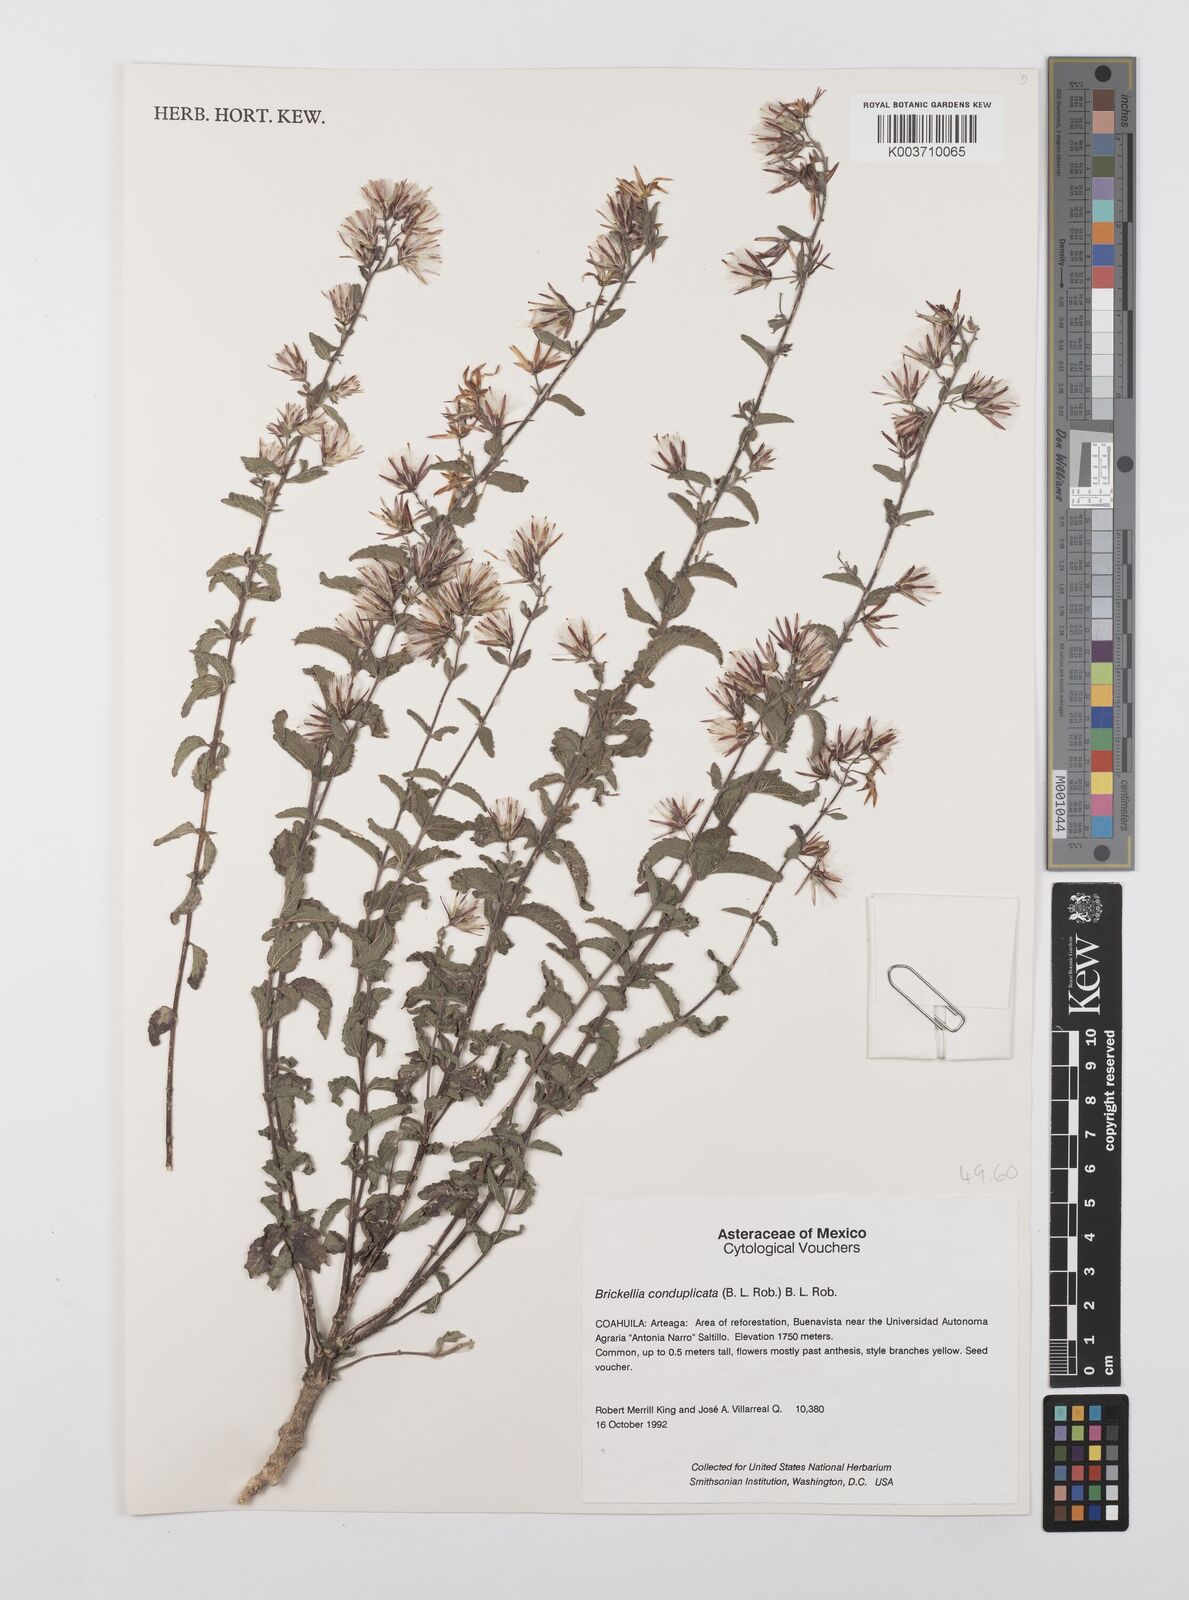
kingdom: Plantae
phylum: Tracheophyta
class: Magnoliopsida
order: Asterales
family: Asteraceae
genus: Brickellia
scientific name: Brickellia lemmonii
